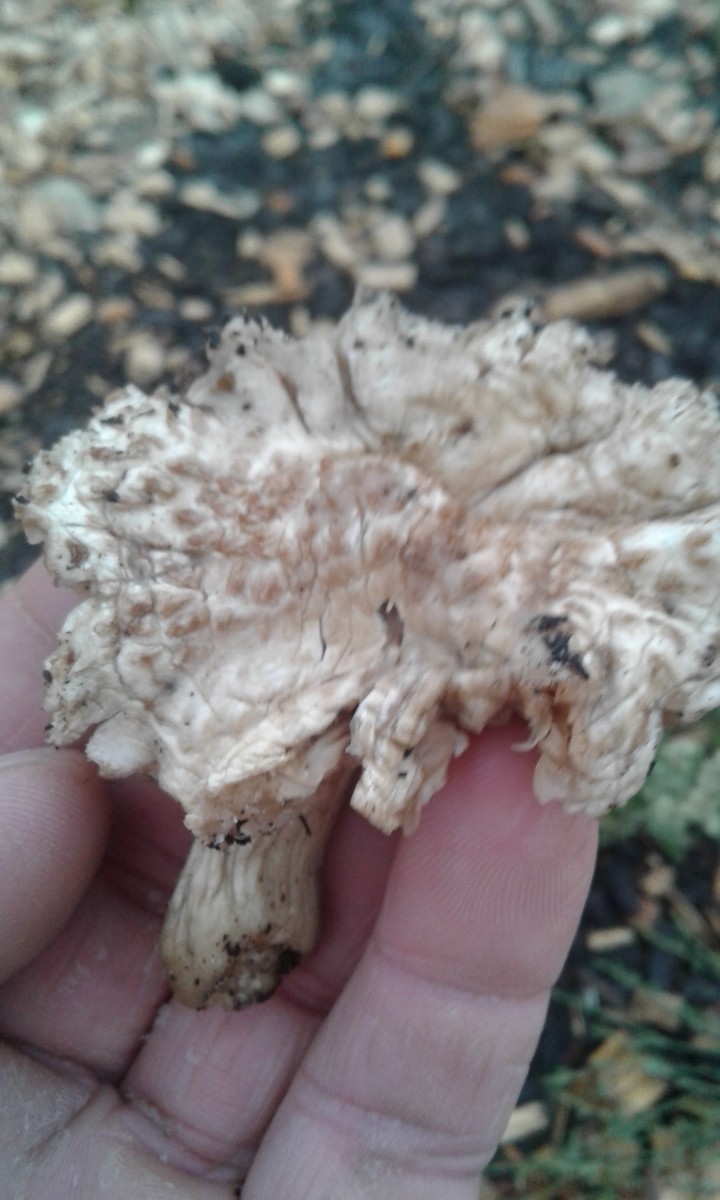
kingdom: Fungi
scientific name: Fungi
